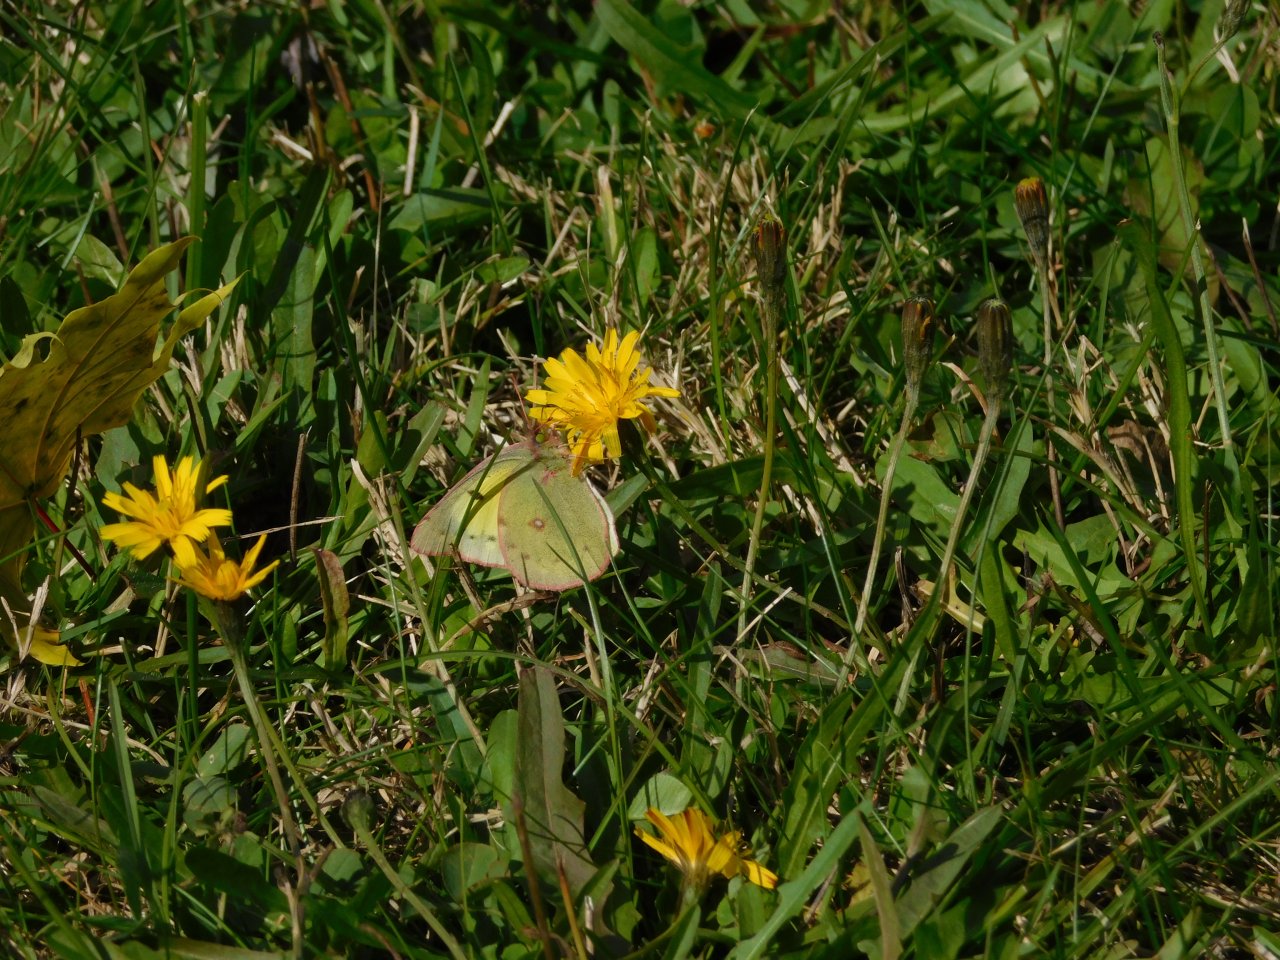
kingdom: Animalia
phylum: Arthropoda
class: Insecta
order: Lepidoptera
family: Pieridae
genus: Colias
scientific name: Colias philodice
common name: Clouded Sulphur
